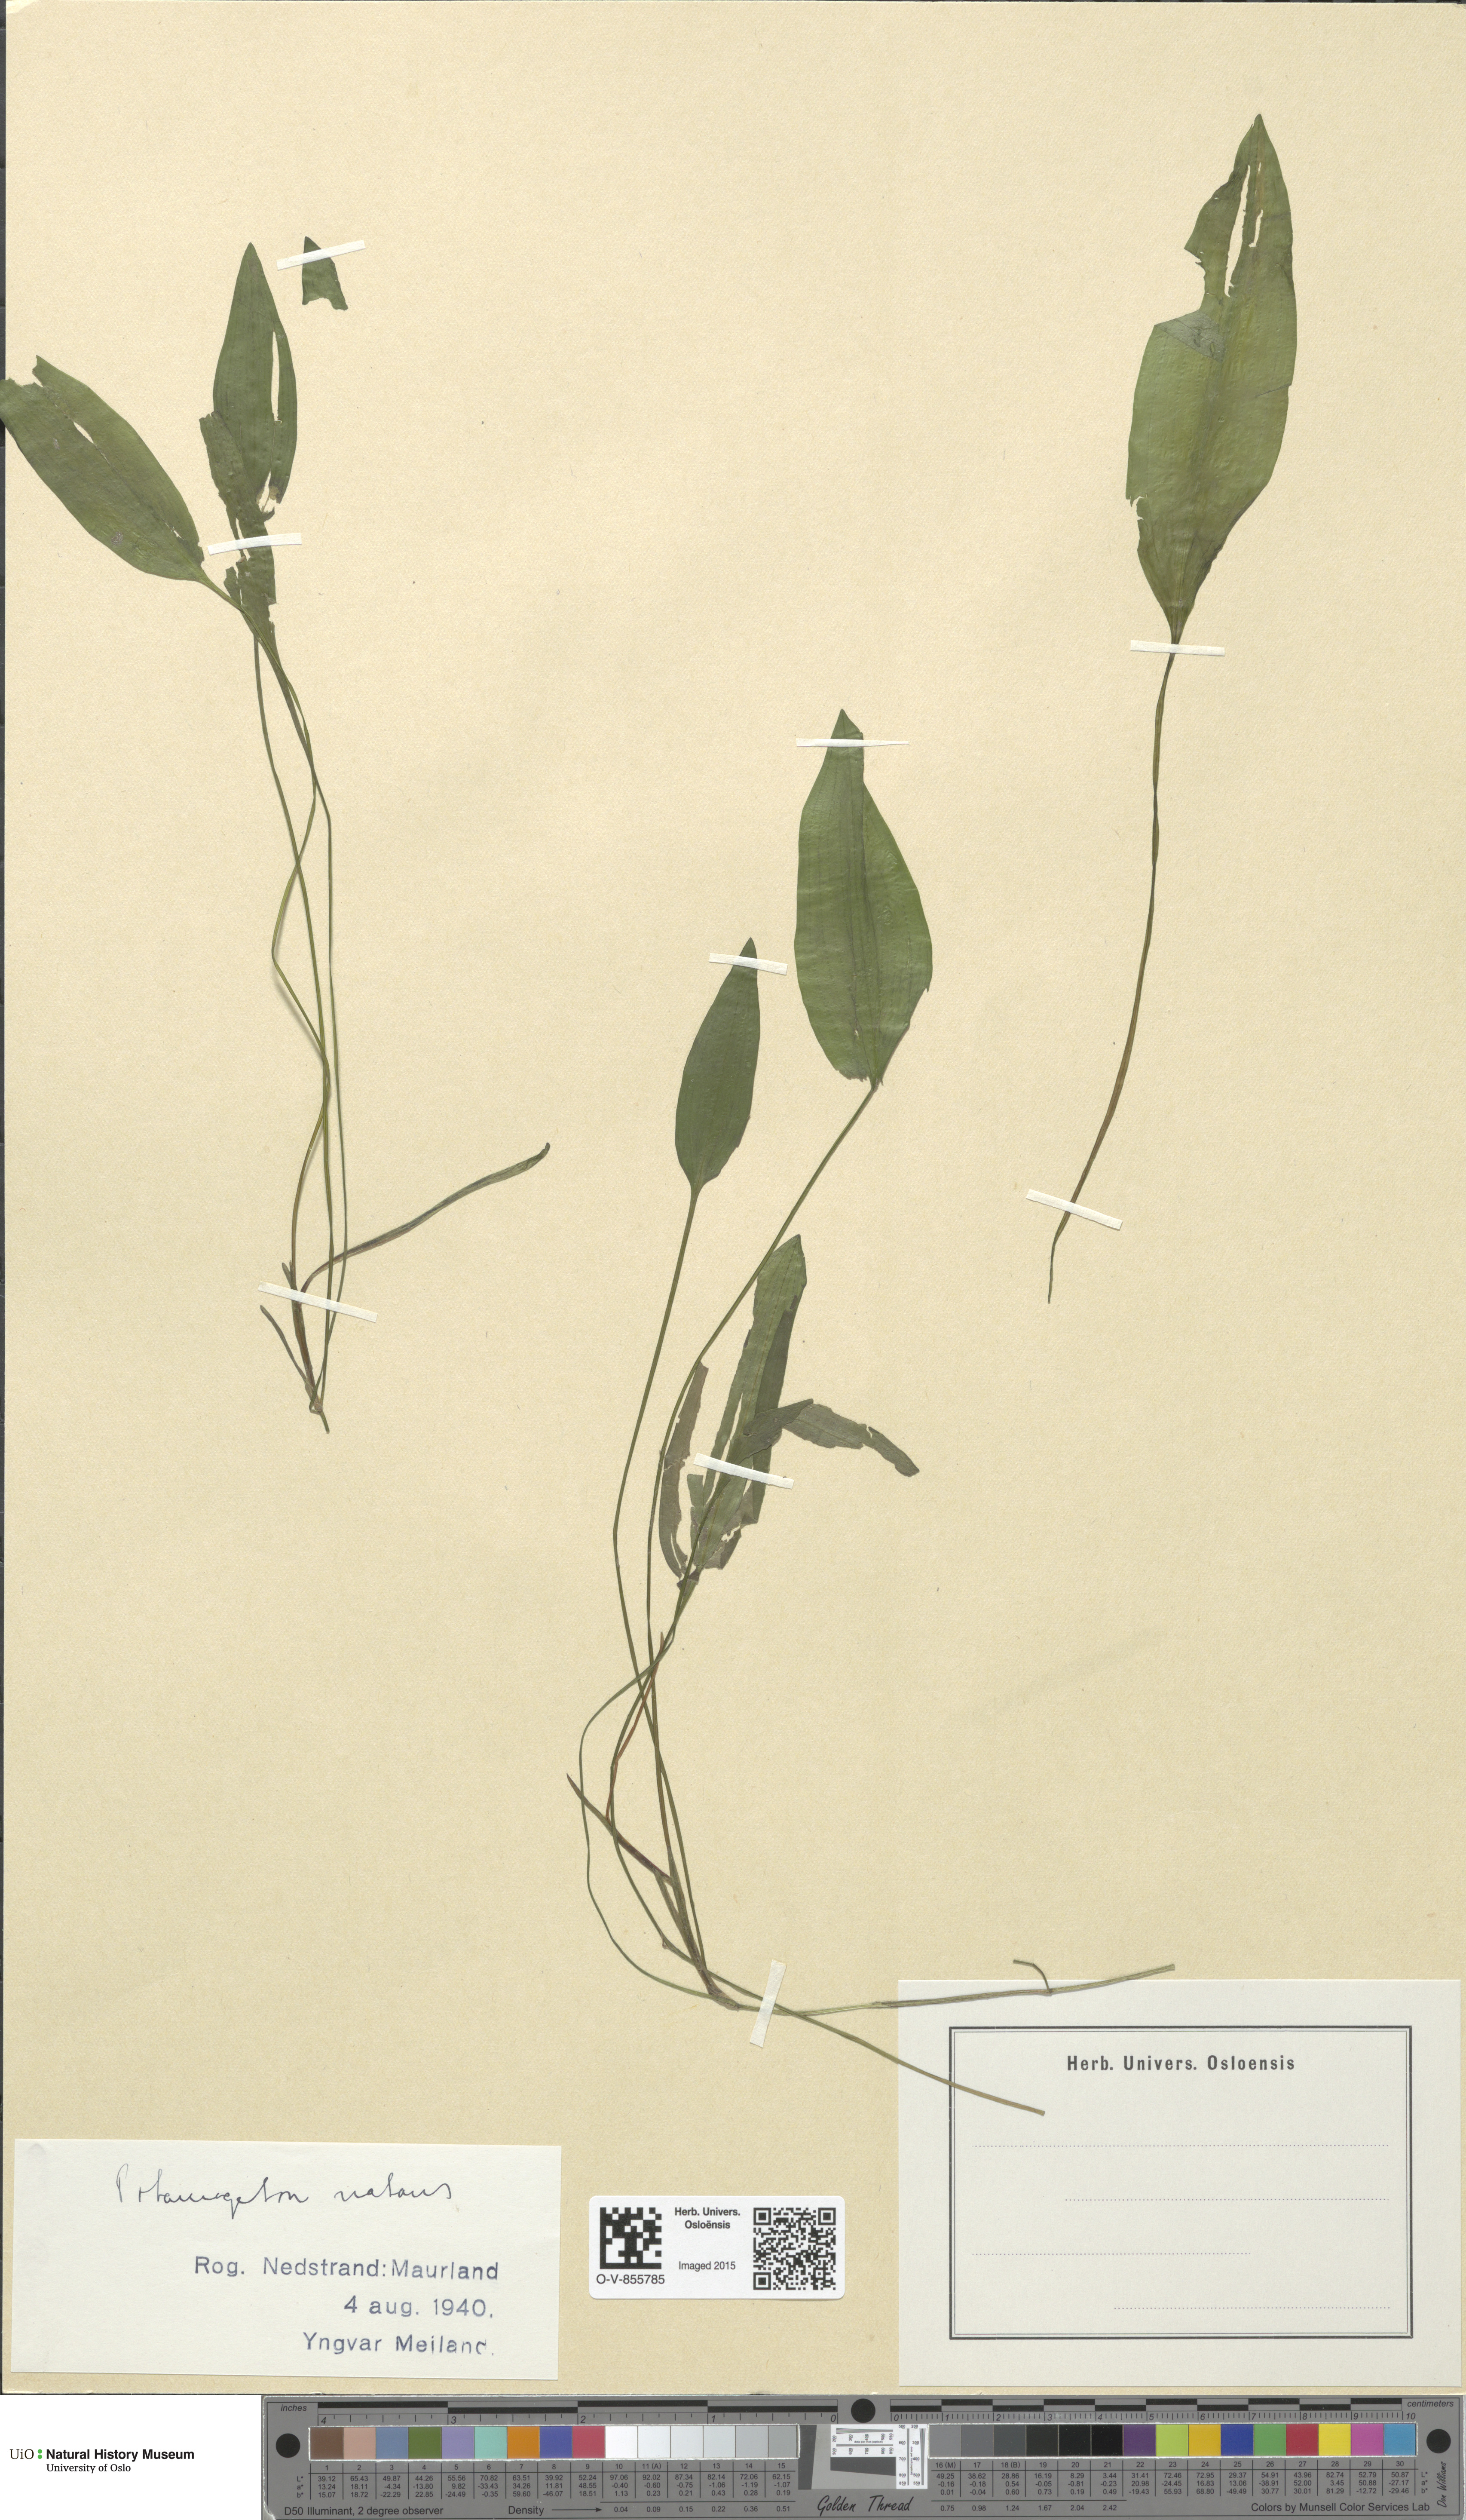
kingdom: Plantae
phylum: Tracheophyta
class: Liliopsida
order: Alismatales
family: Potamogetonaceae
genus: Potamogeton
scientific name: Potamogeton natans
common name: Broad-leaved pondweed
